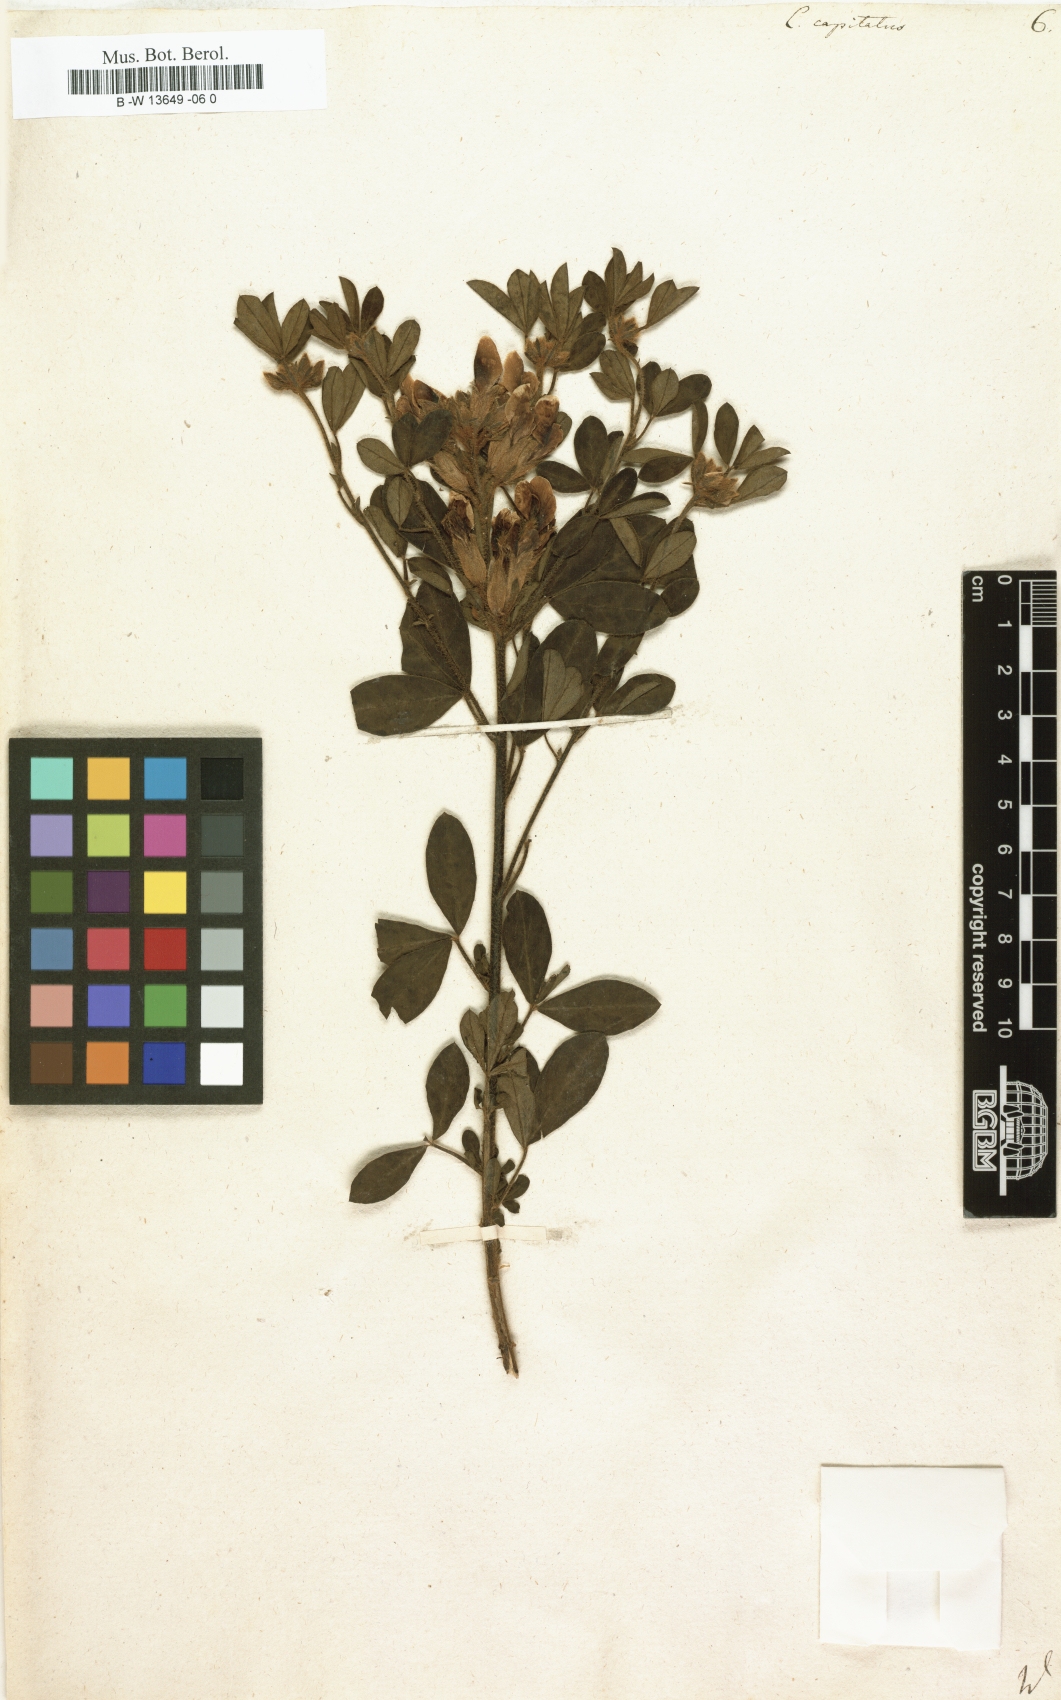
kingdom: Plantae
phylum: Tracheophyta
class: Magnoliopsida
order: Fabales
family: Fabaceae
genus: Chamaecytisus
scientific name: Chamaecytisus hirsutus
